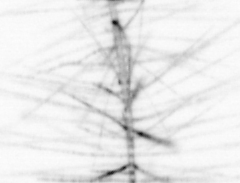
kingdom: Animalia
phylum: Chordata
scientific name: Chordata
